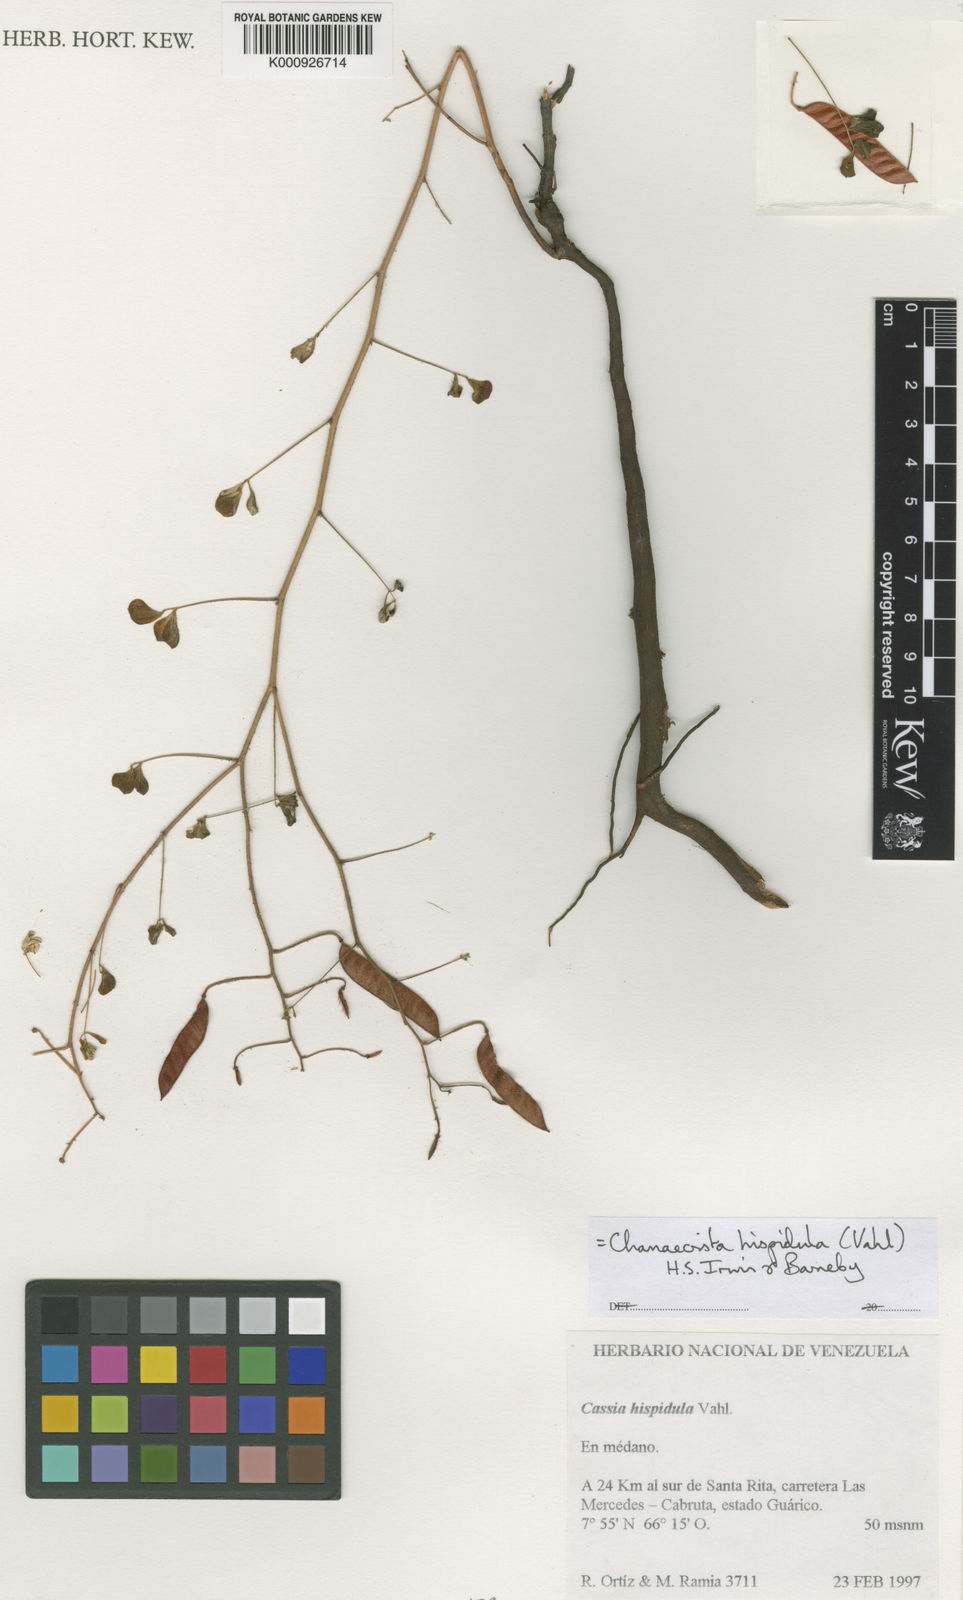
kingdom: Plantae
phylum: Tracheophyta
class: Magnoliopsida
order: Fabales
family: Fabaceae
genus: Chamaecrista
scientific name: Chamaecrista hispidula
